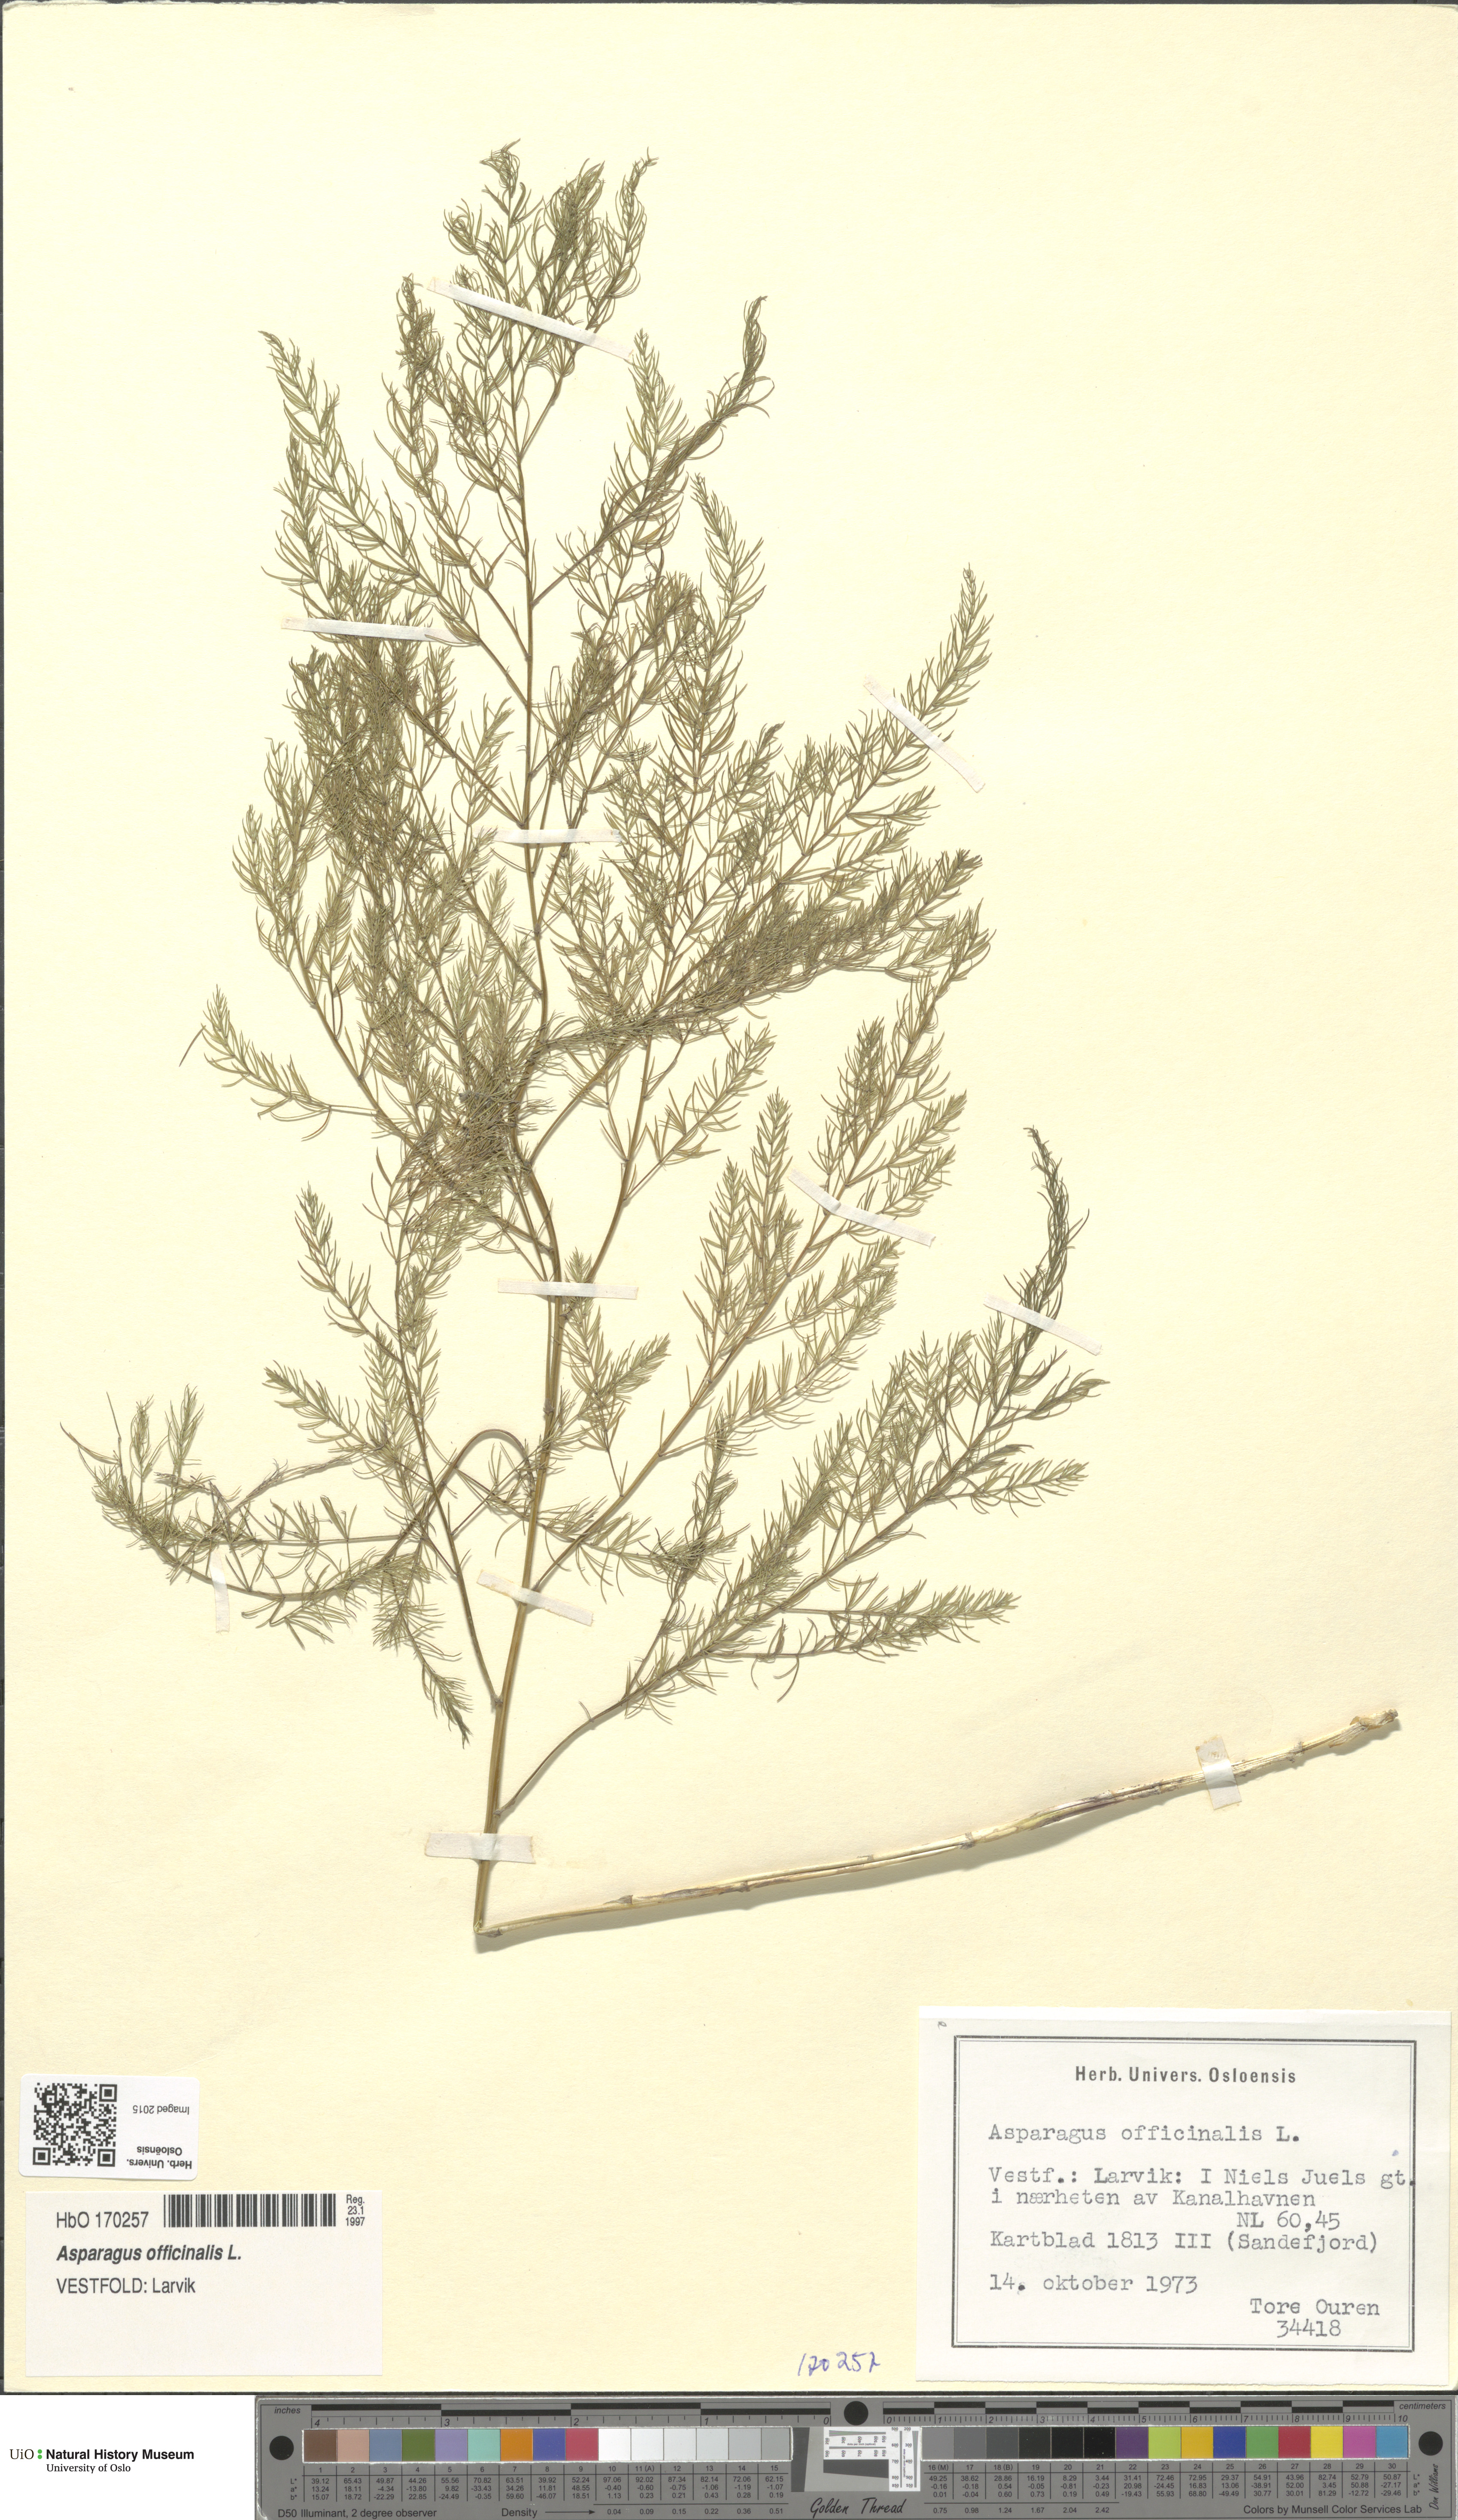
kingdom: Plantae
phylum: Tracheophyta
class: Liliopsida
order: Asparagales
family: Asparagaceae
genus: Asparagus
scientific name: Asparagus officinalis
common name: Garden asparagus
